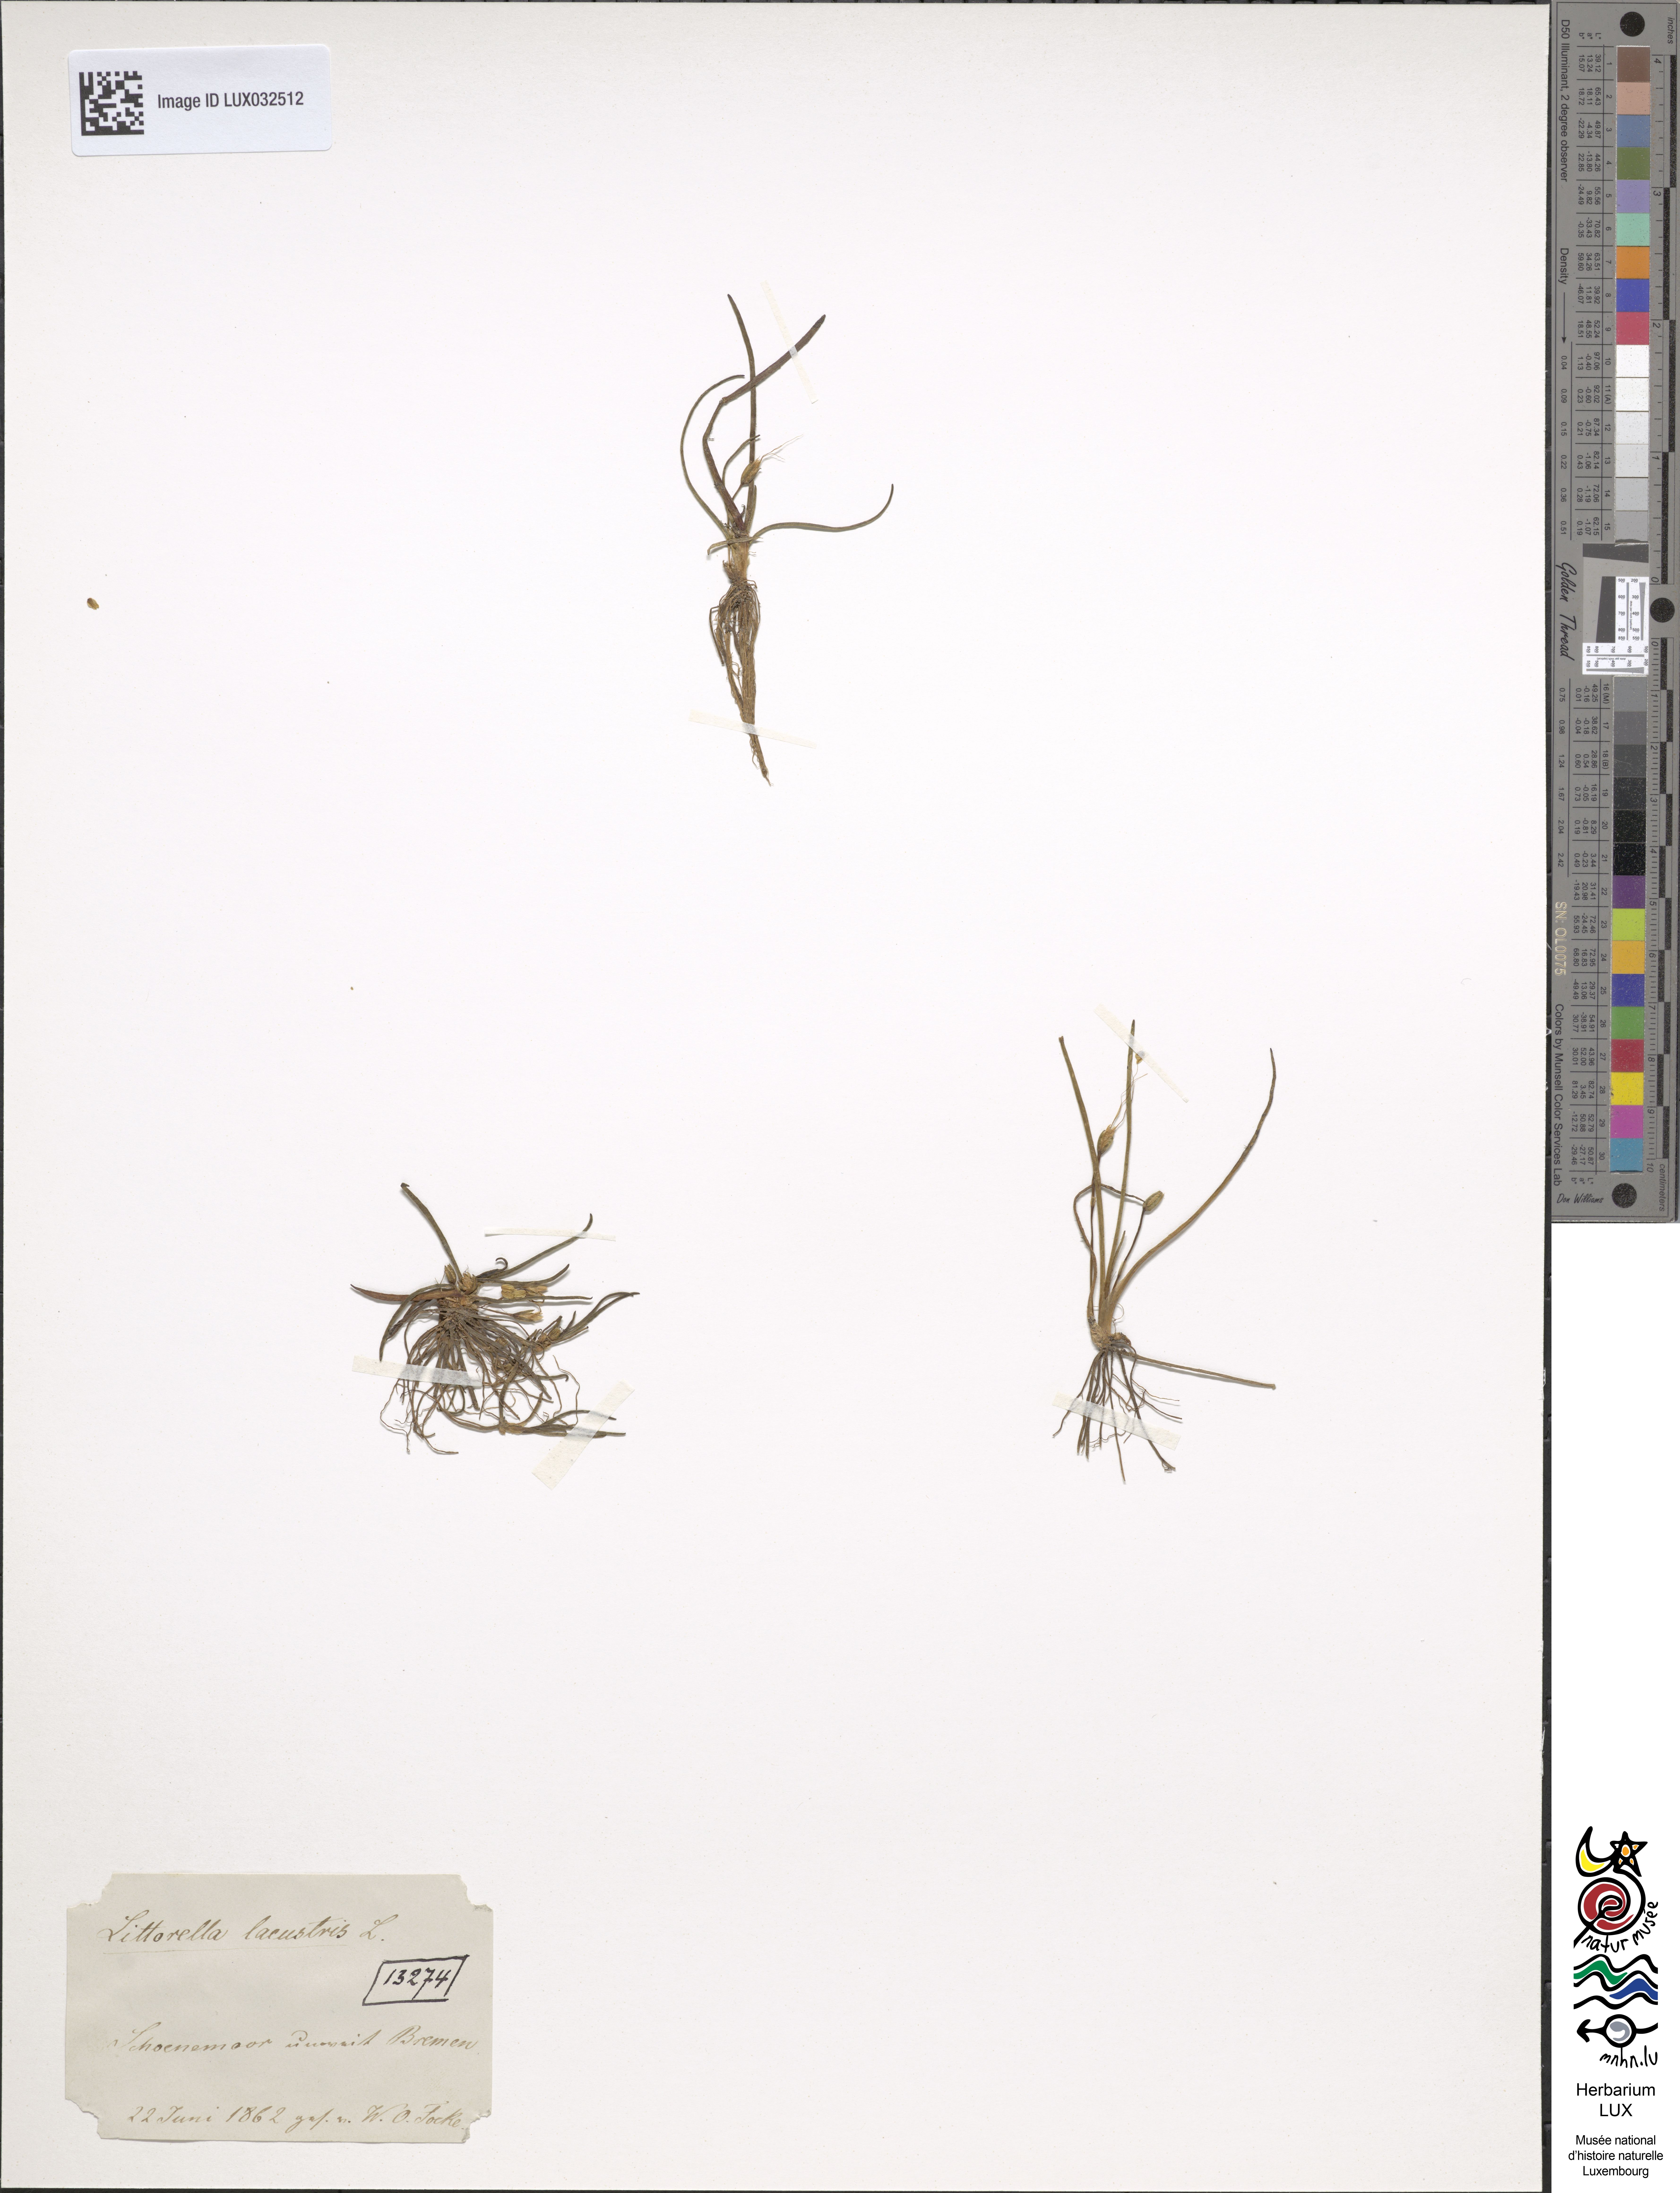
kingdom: Plantae
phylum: Tracheophyta
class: Magnoliopsida
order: Lamiales
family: Plantaginaceae
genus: Littorella
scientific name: Littorella uniflora
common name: Shoreweed
